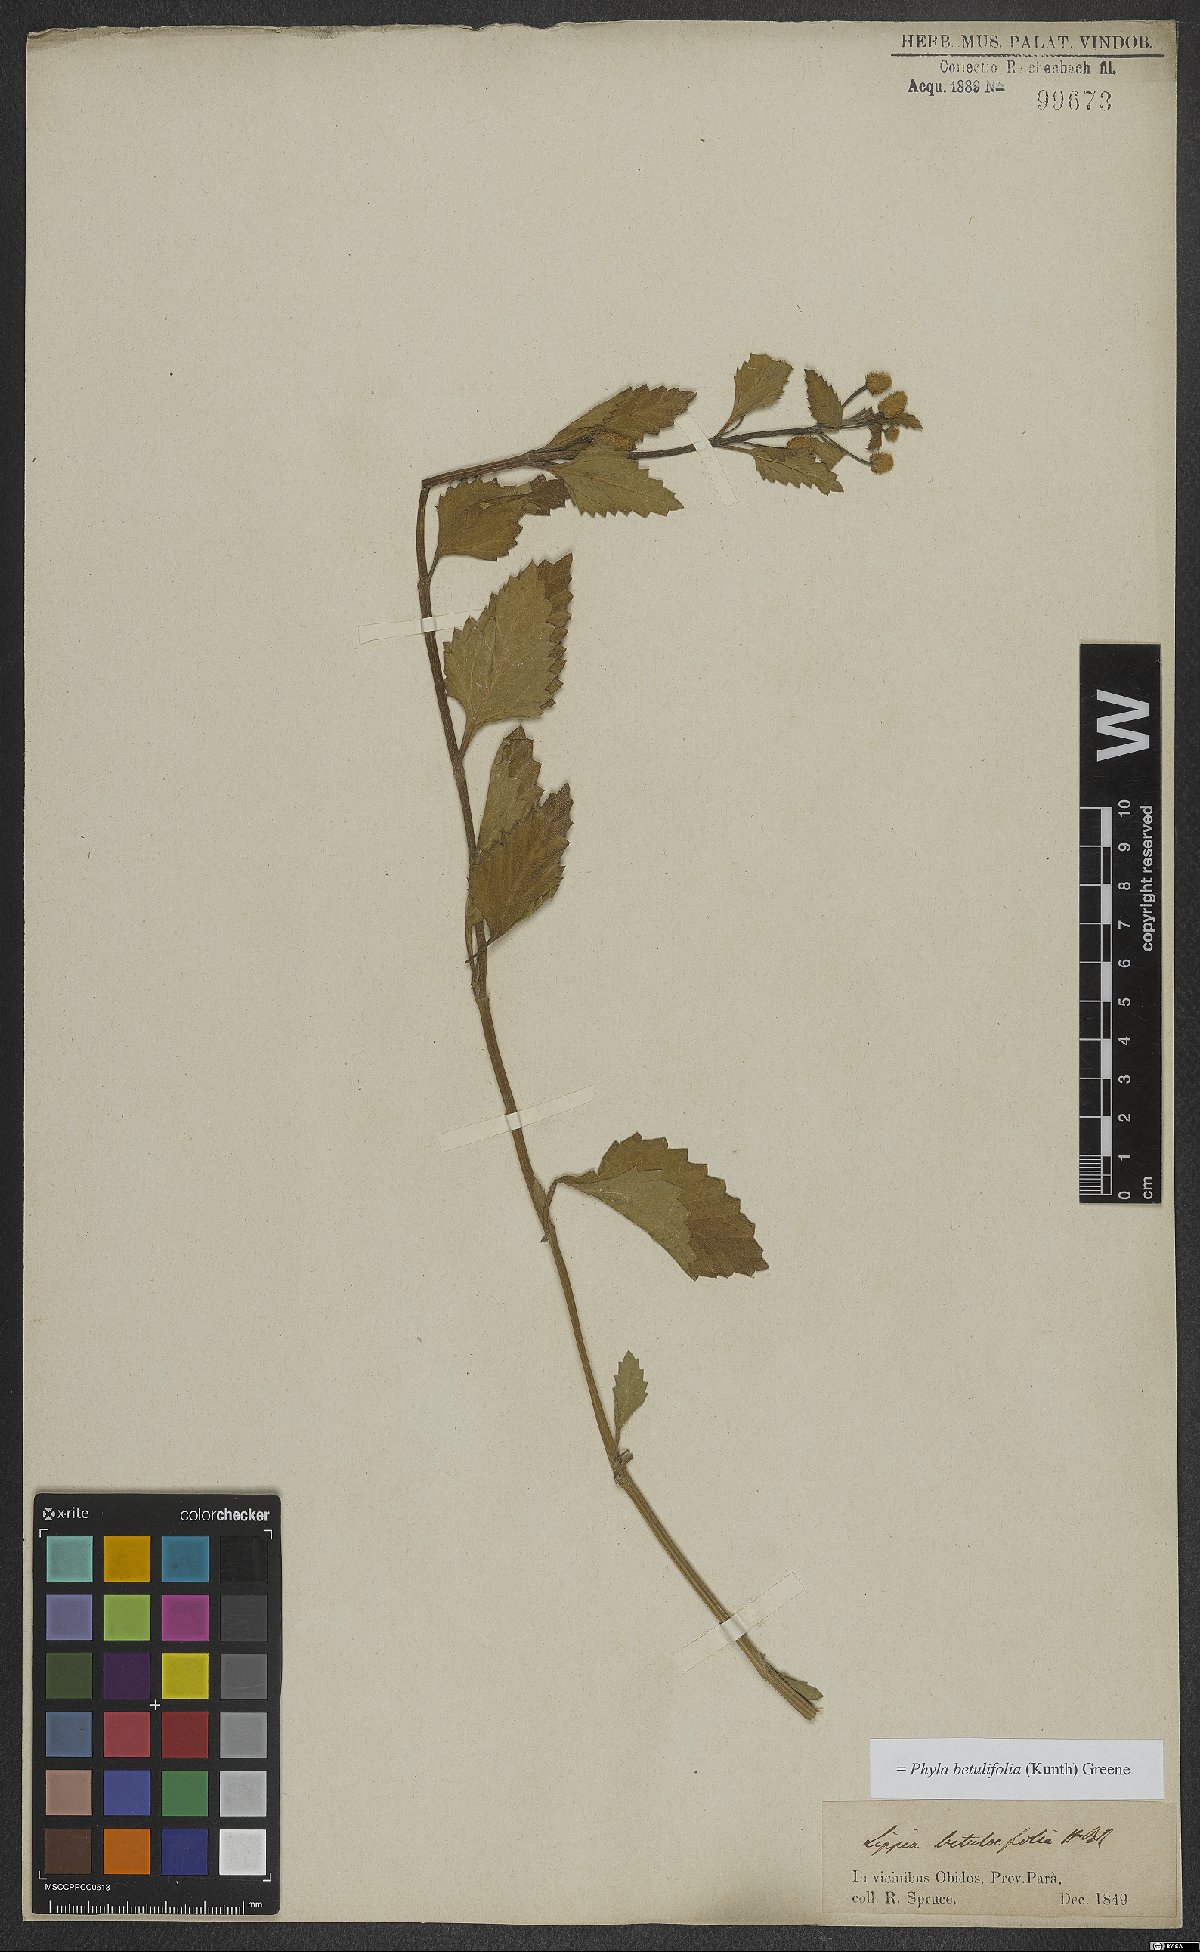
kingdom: Plantae
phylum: Tracheophyta
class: Magnoliopsida
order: Lamiales
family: Verbenaceae
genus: Phyla
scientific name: Phyla betulifolia
